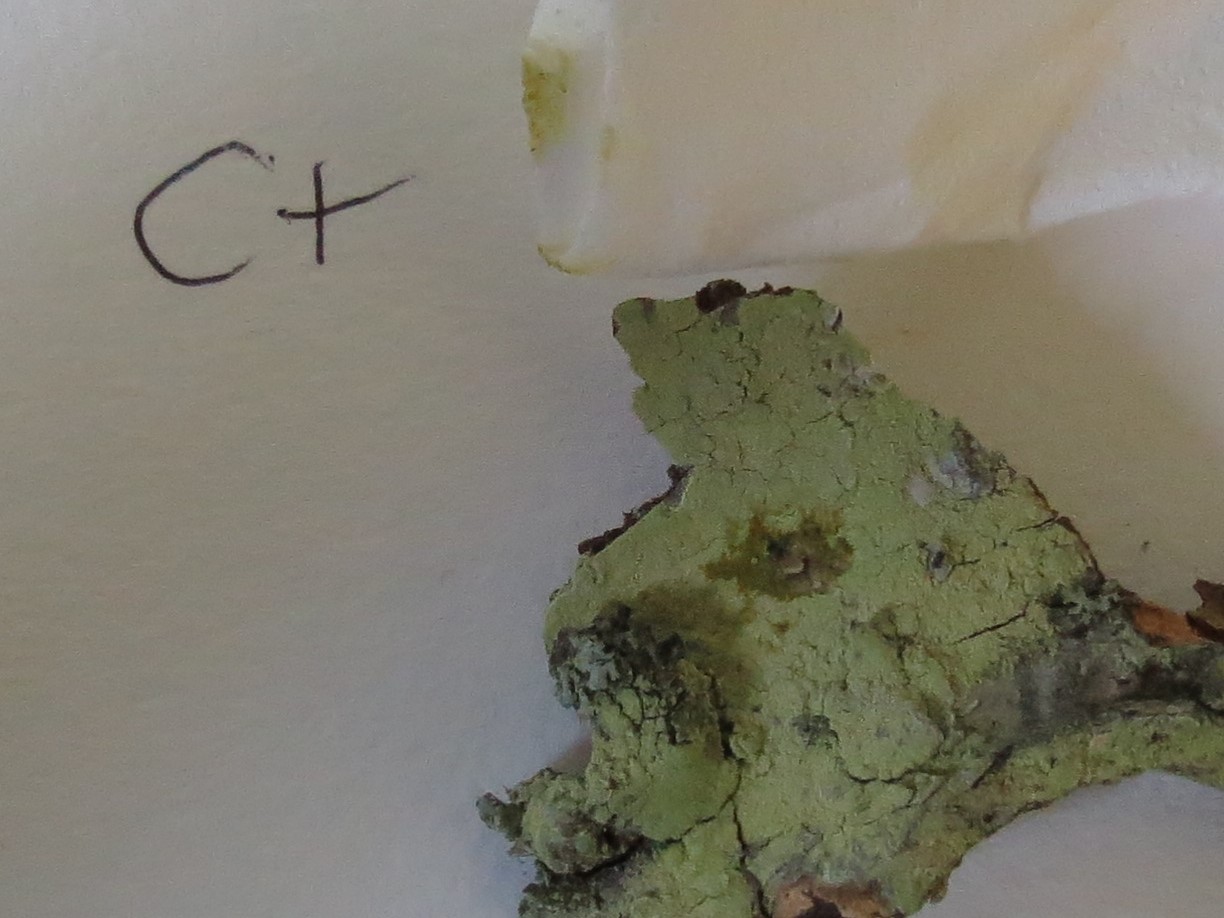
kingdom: Fungi
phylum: Ascomycota
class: Lecanoromycetes
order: Lecanorales
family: Lecanoraceae
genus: Lecanora
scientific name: Lecanora expallens
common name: bleggul kantskivelav
